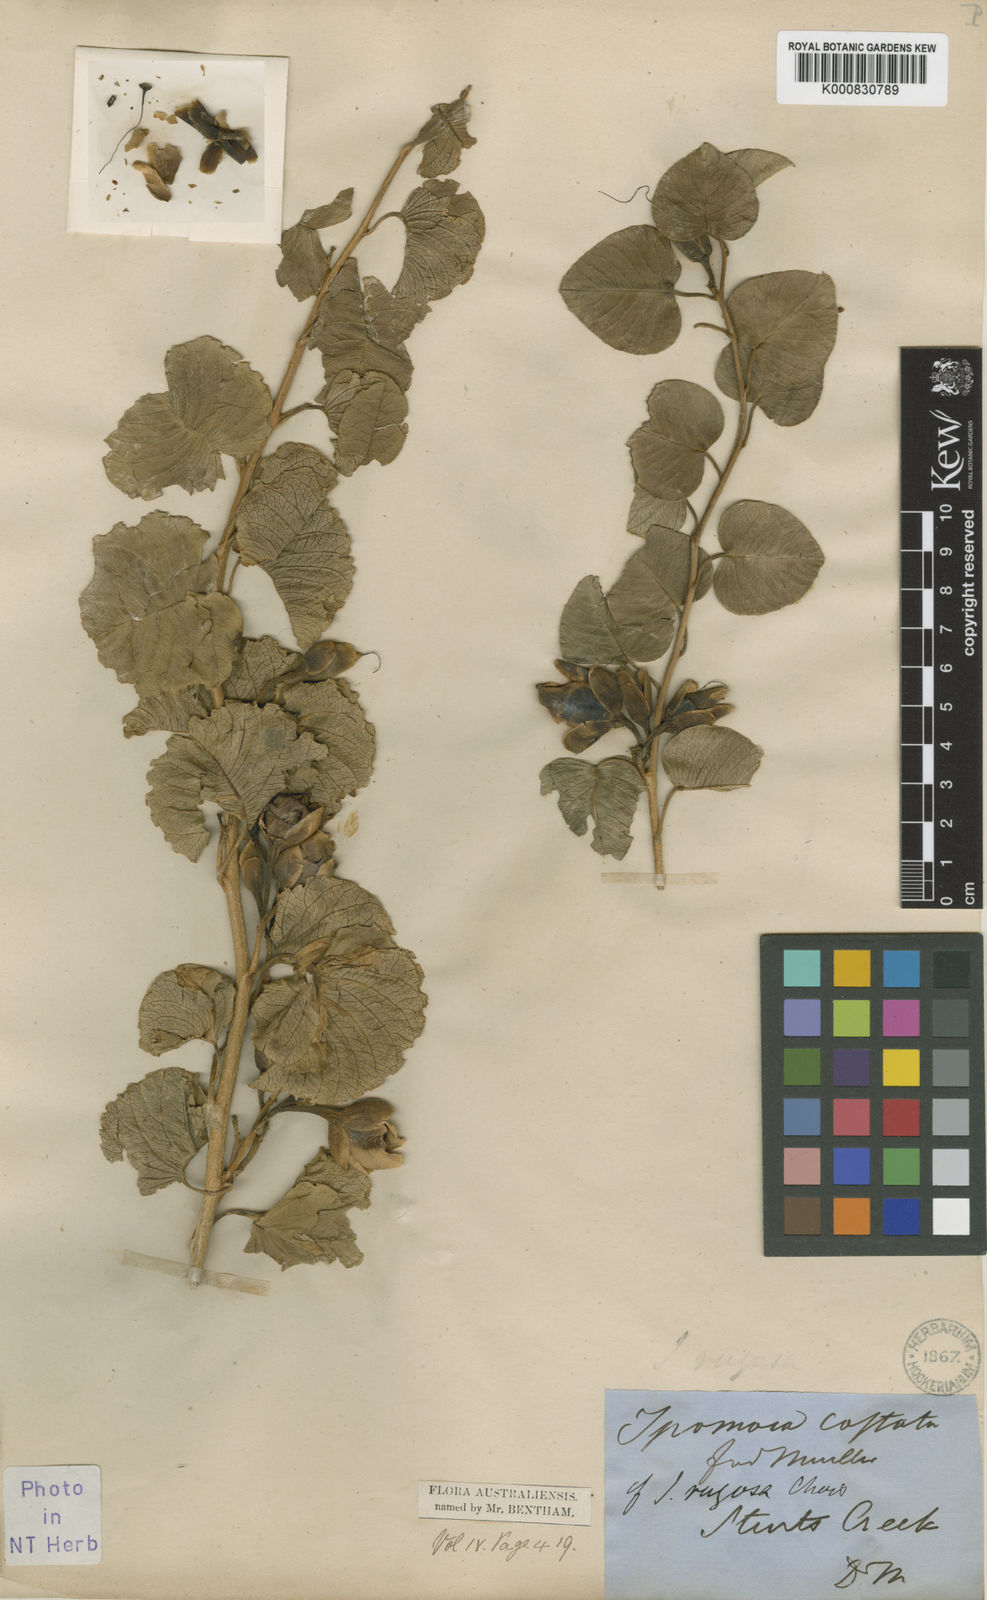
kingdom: Plantae
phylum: Tracheophyta
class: Magnoliopsida
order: Solanales
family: Convolvulaceae
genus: Ipomoea
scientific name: Ipomoea costata
